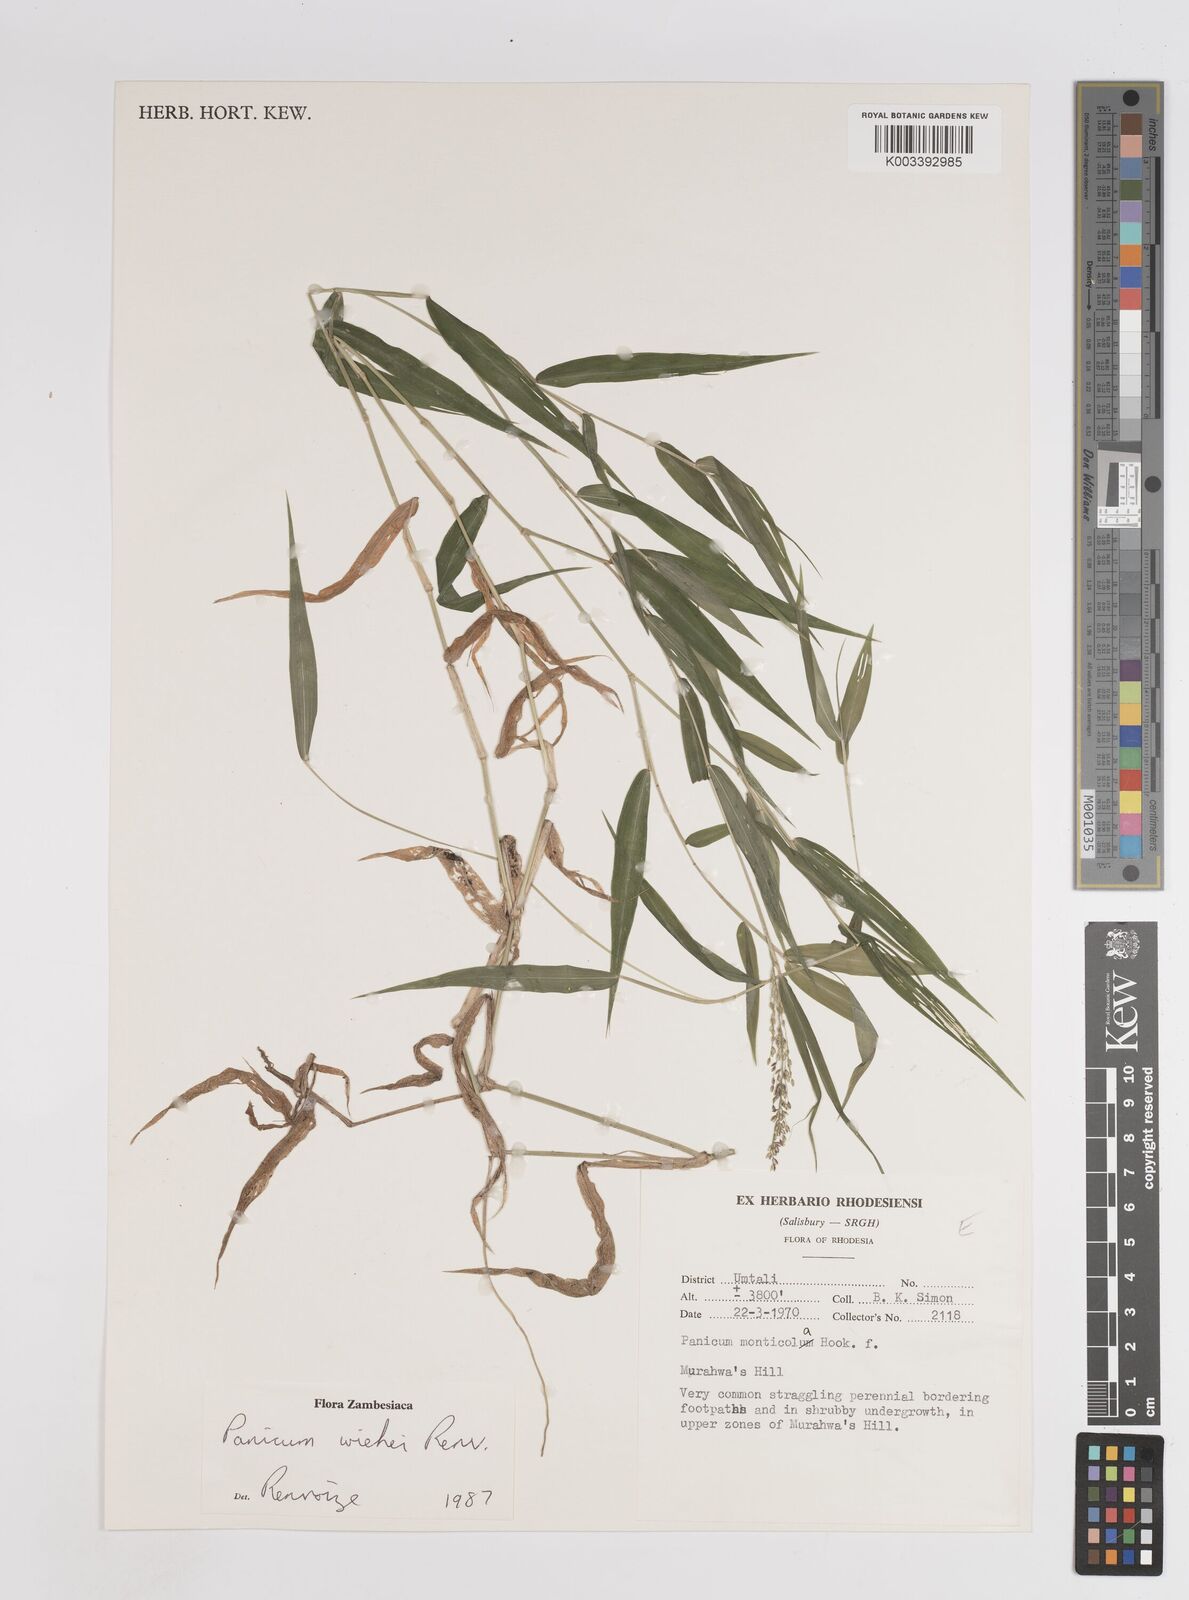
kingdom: Plantae
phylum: Tracheophyta
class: Liliopsida
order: Poales
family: Poaceae
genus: Panicum
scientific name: Panicum wiehei
